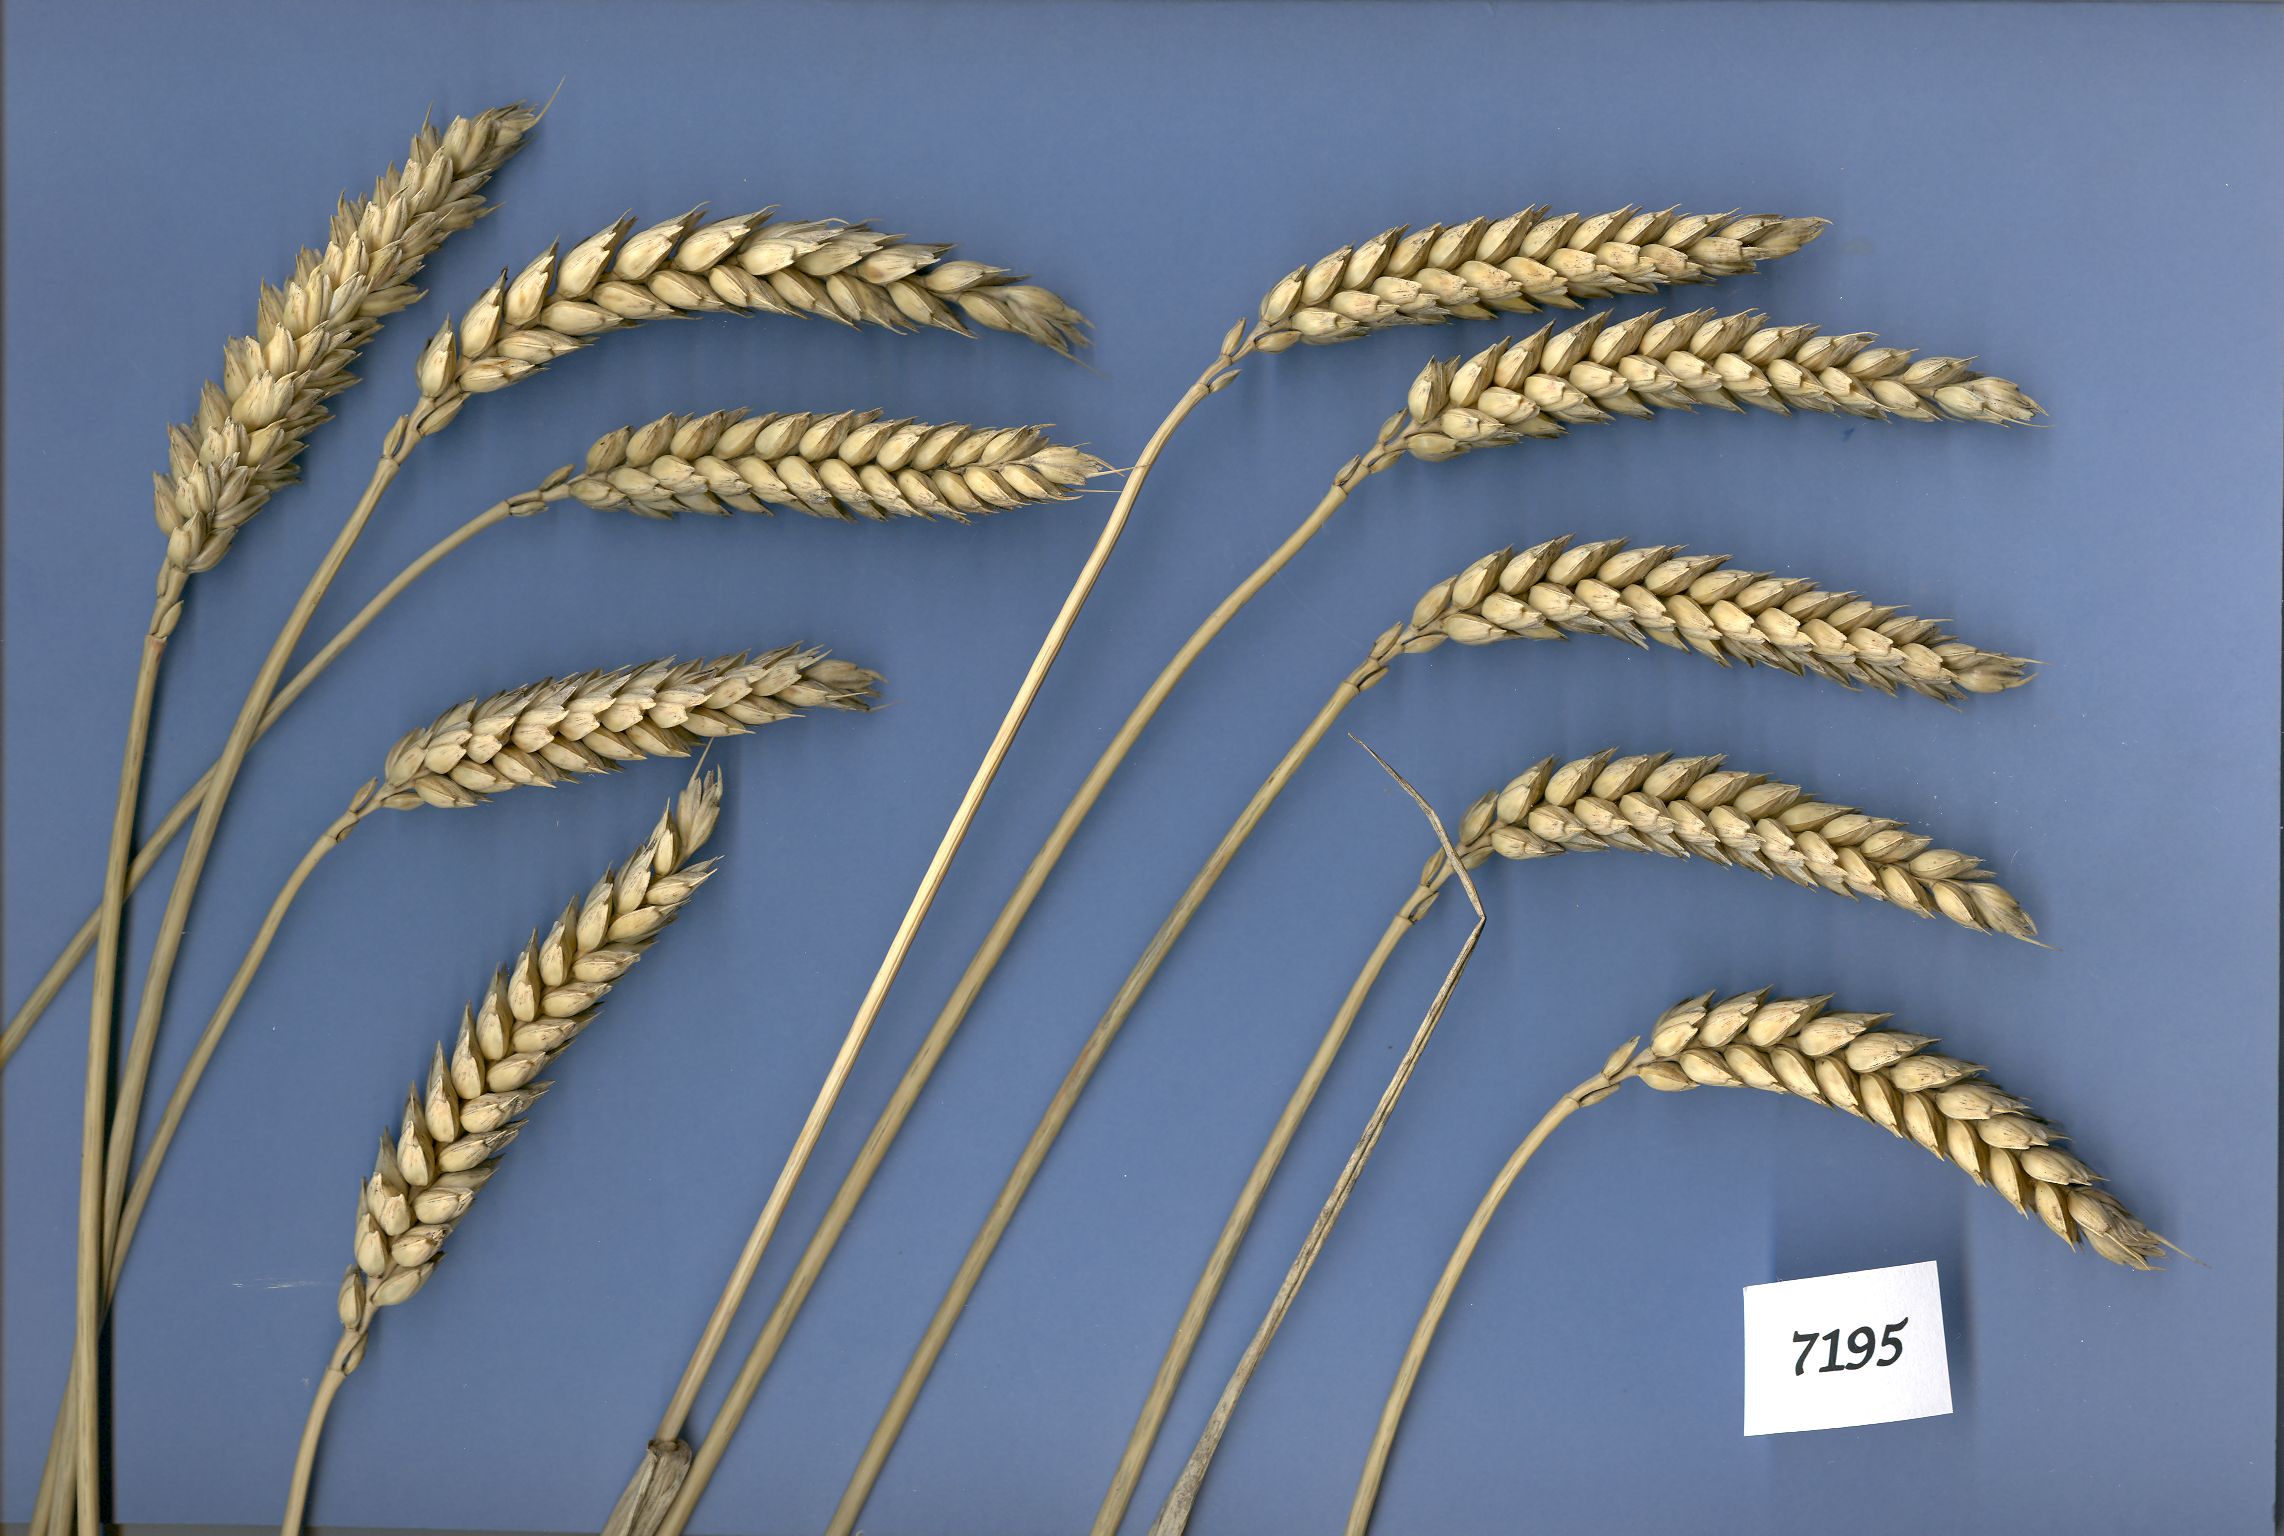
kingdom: Plantae
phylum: Tracheophyta
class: Liliopsida
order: Poales
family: Poaceae
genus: Triticum
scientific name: Triticum aestivum
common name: Common wheat
